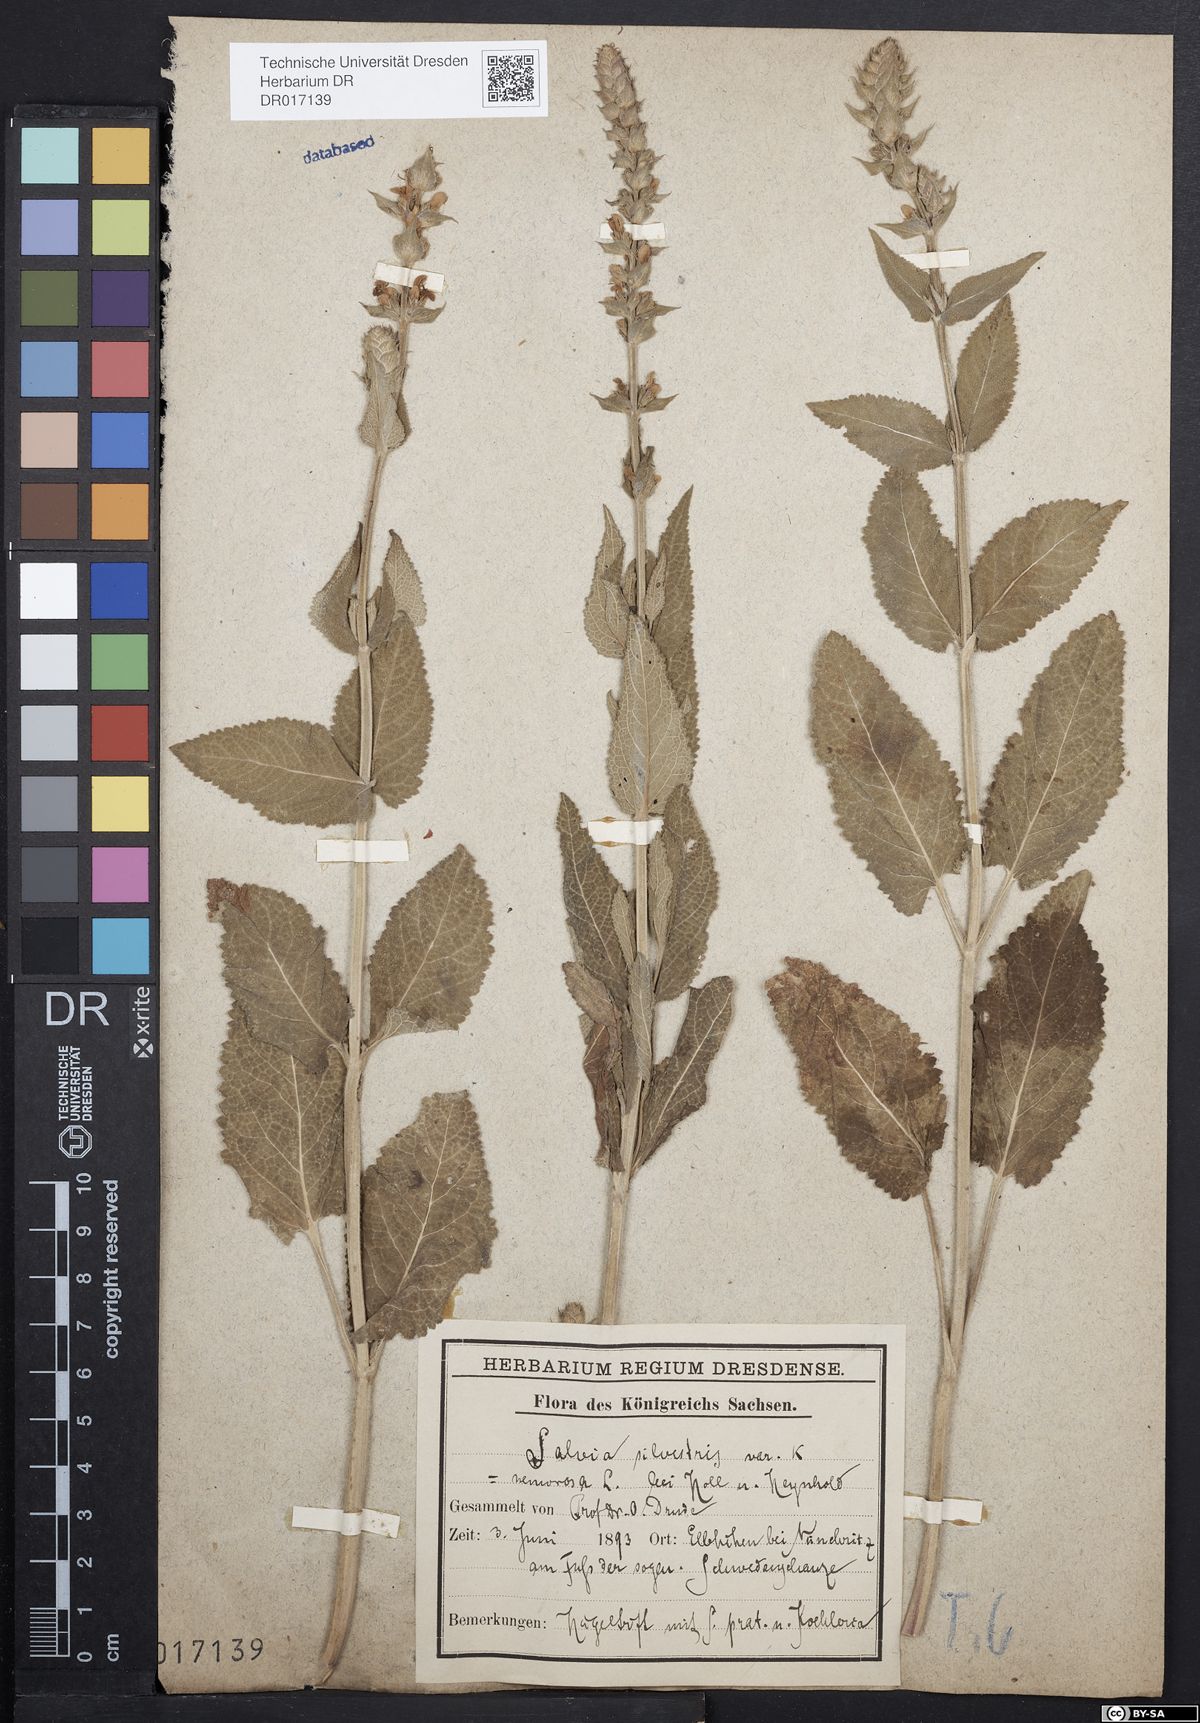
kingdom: Plantae
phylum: Tracheophyta
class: Magnoliopsida
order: Lamiales
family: Lamiaceae
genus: Salvia
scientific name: Salvia nemorosa
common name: Balkan clary
